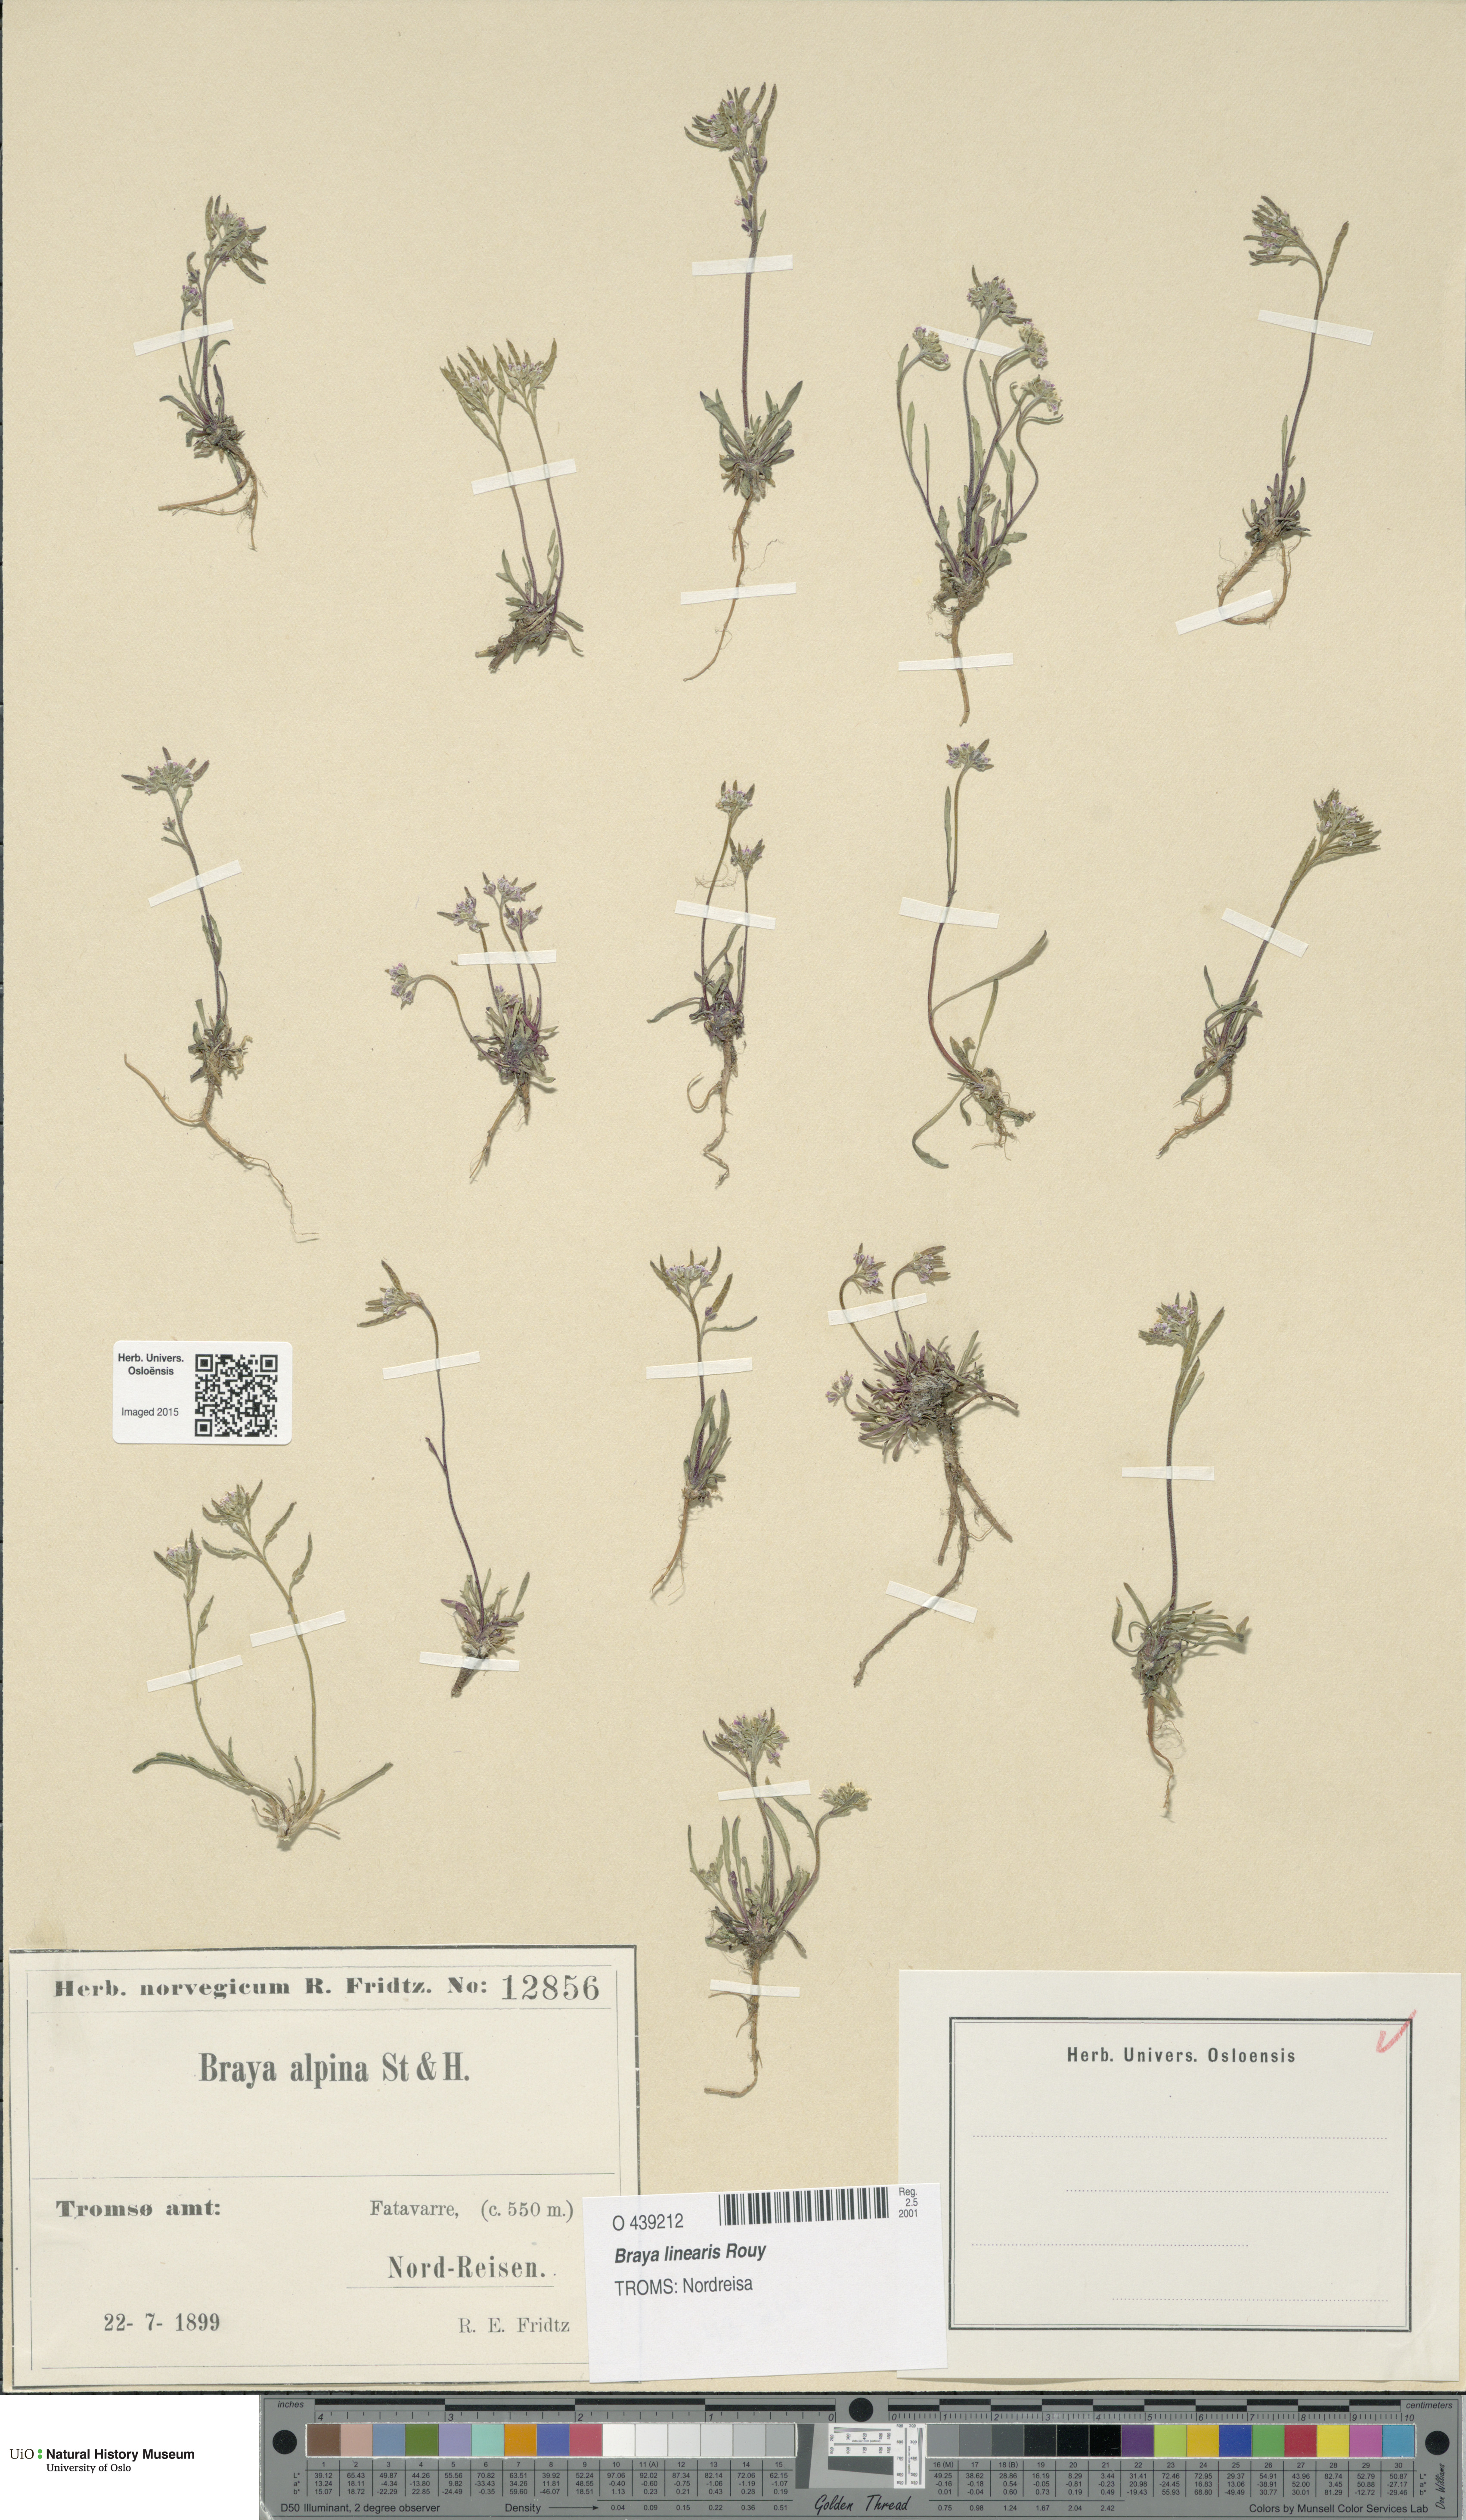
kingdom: Plantae
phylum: Tracheophyta
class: Magnoliopsida
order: Brassicales
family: Brassicaceae
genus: Braya
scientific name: Braya linearis
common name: Narrow-fruit braya
